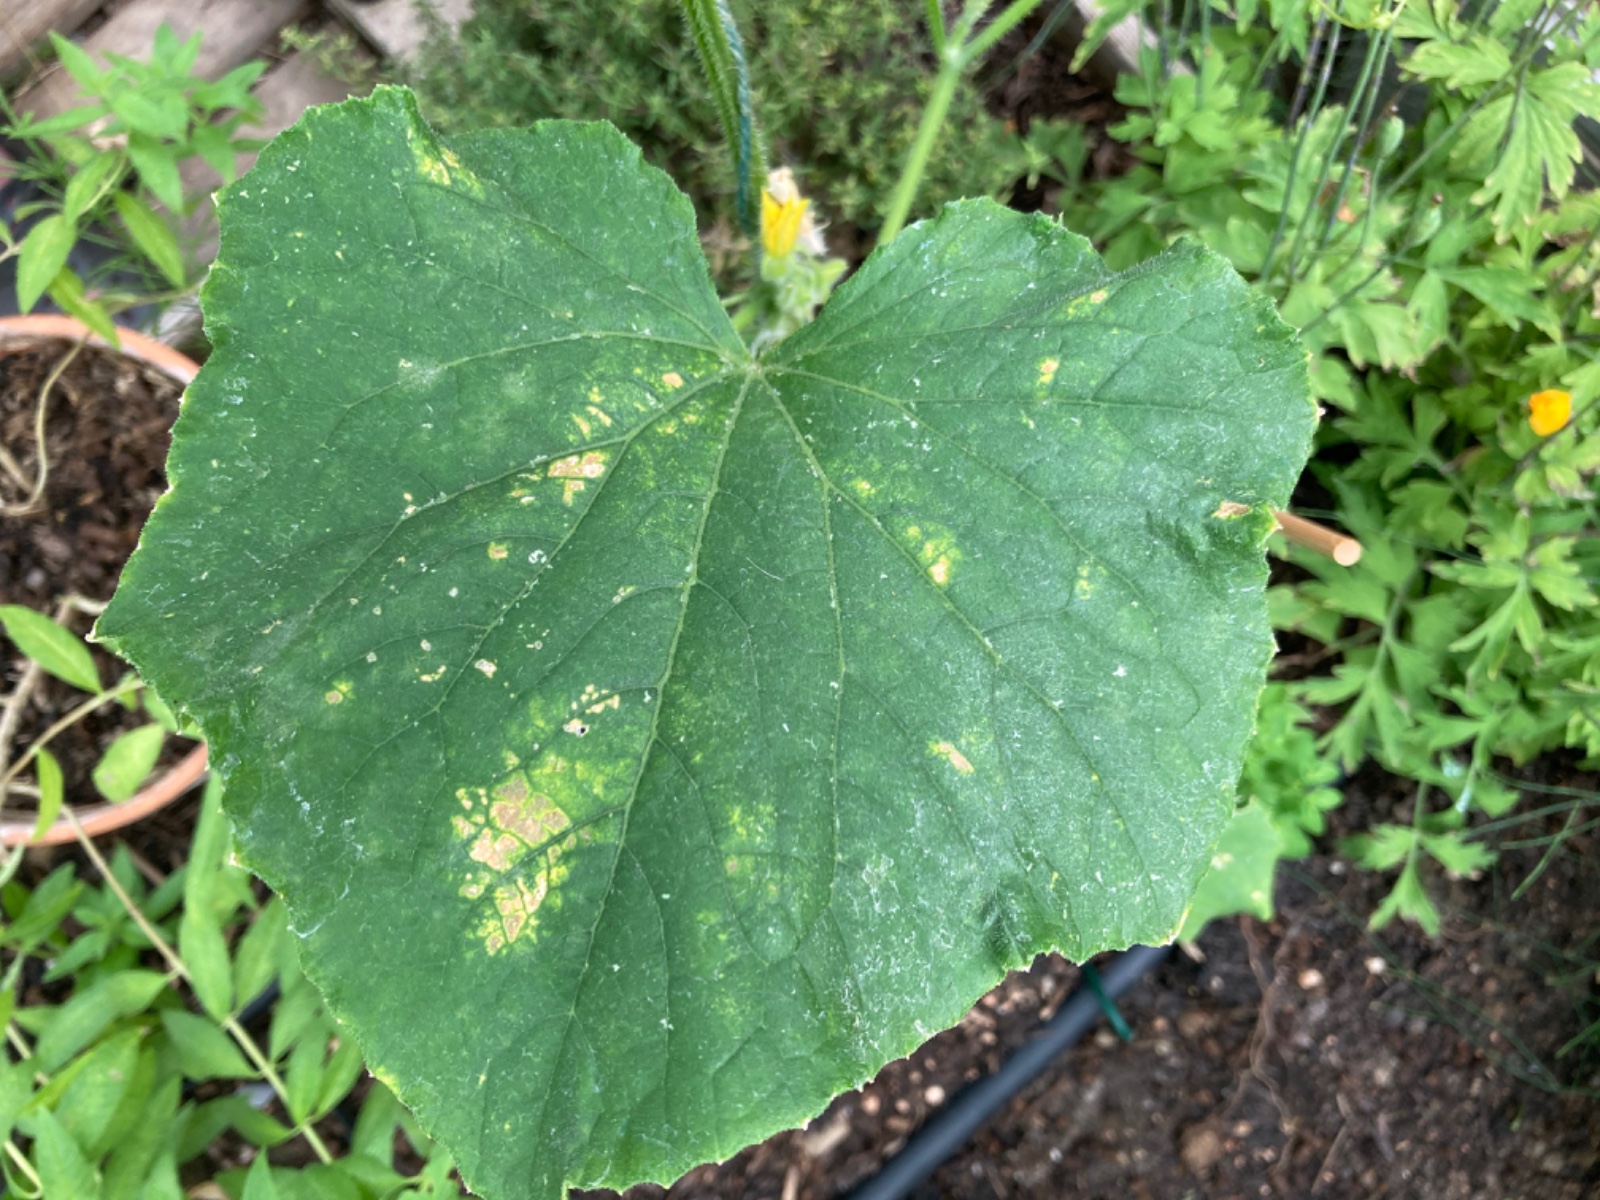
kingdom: Fungi
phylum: Ascomycota
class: Leotiomycetes
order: Helotiales
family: Erysiphaceae
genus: Podosphaera
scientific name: Podosphaera fusca
